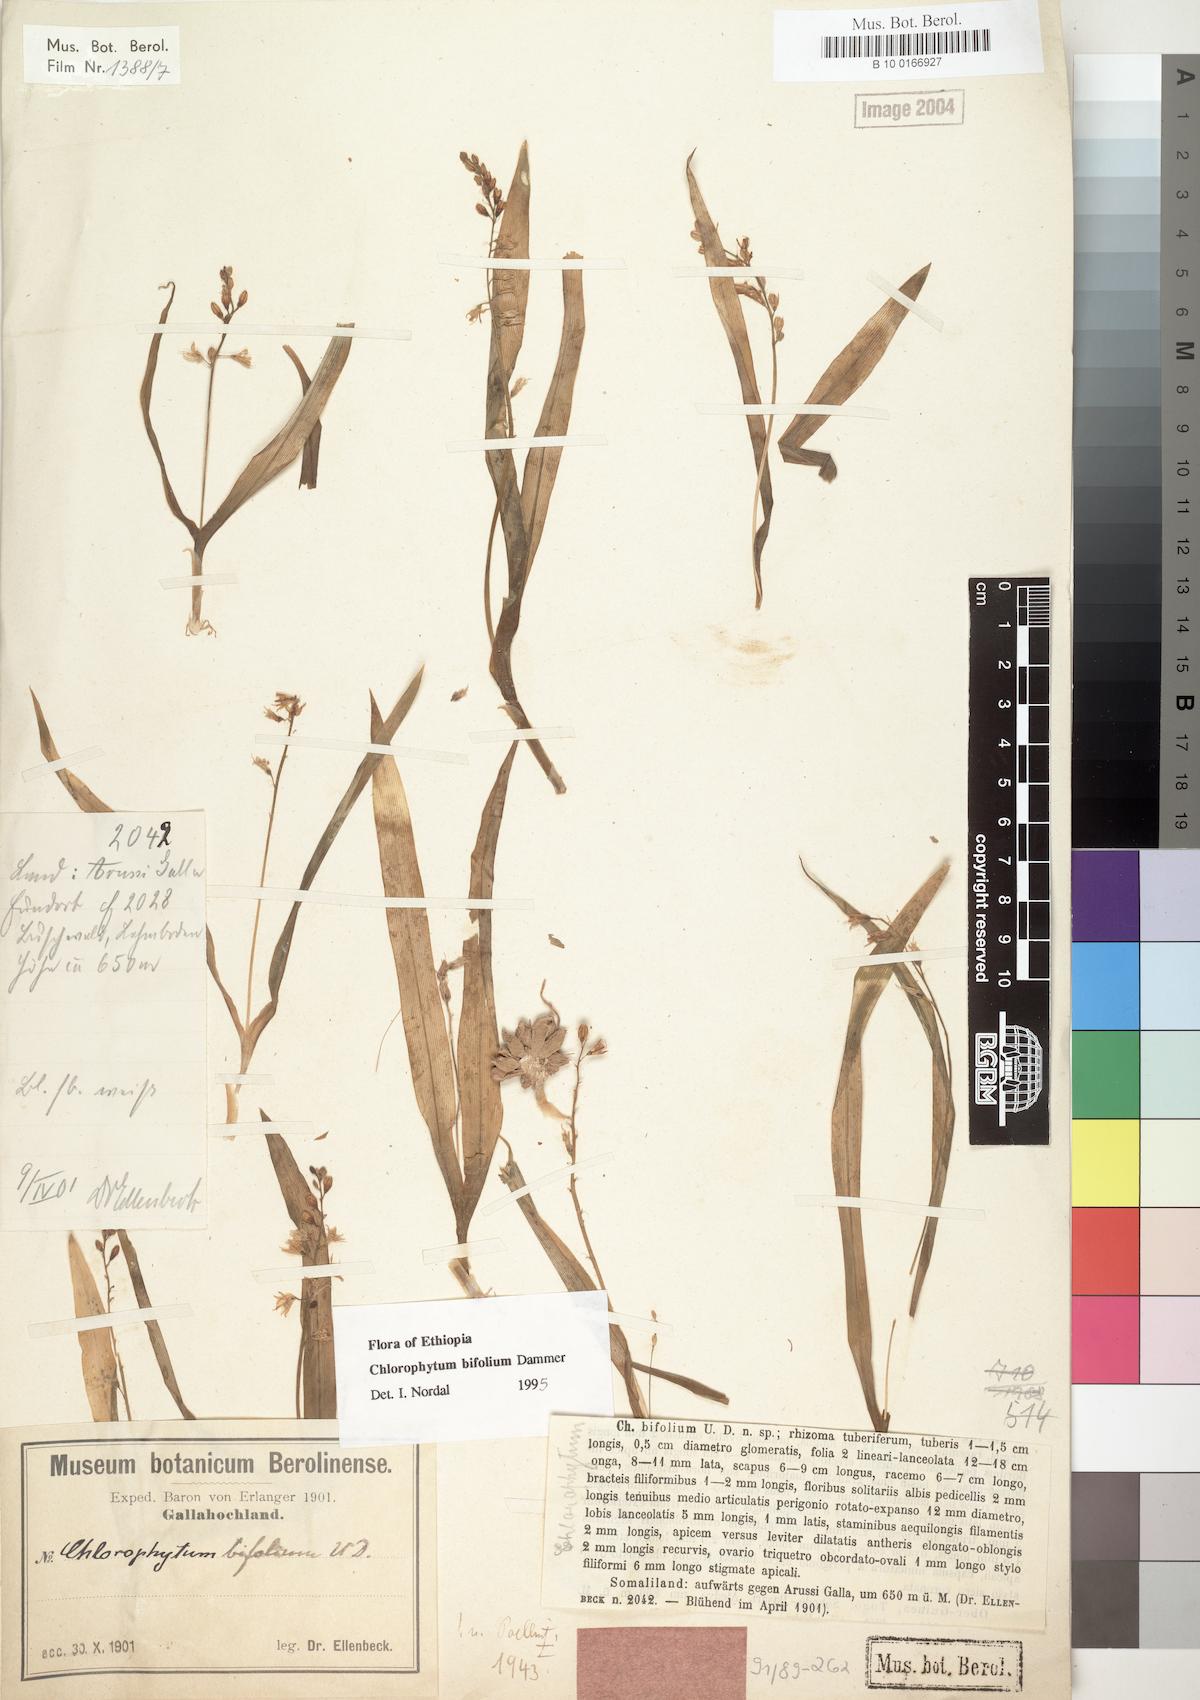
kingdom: Plantae
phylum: Tracheophyta
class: Liliopsida
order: Asparagales
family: Asparagaceae
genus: Chlorophytum
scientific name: Chlorophytum bifolium
